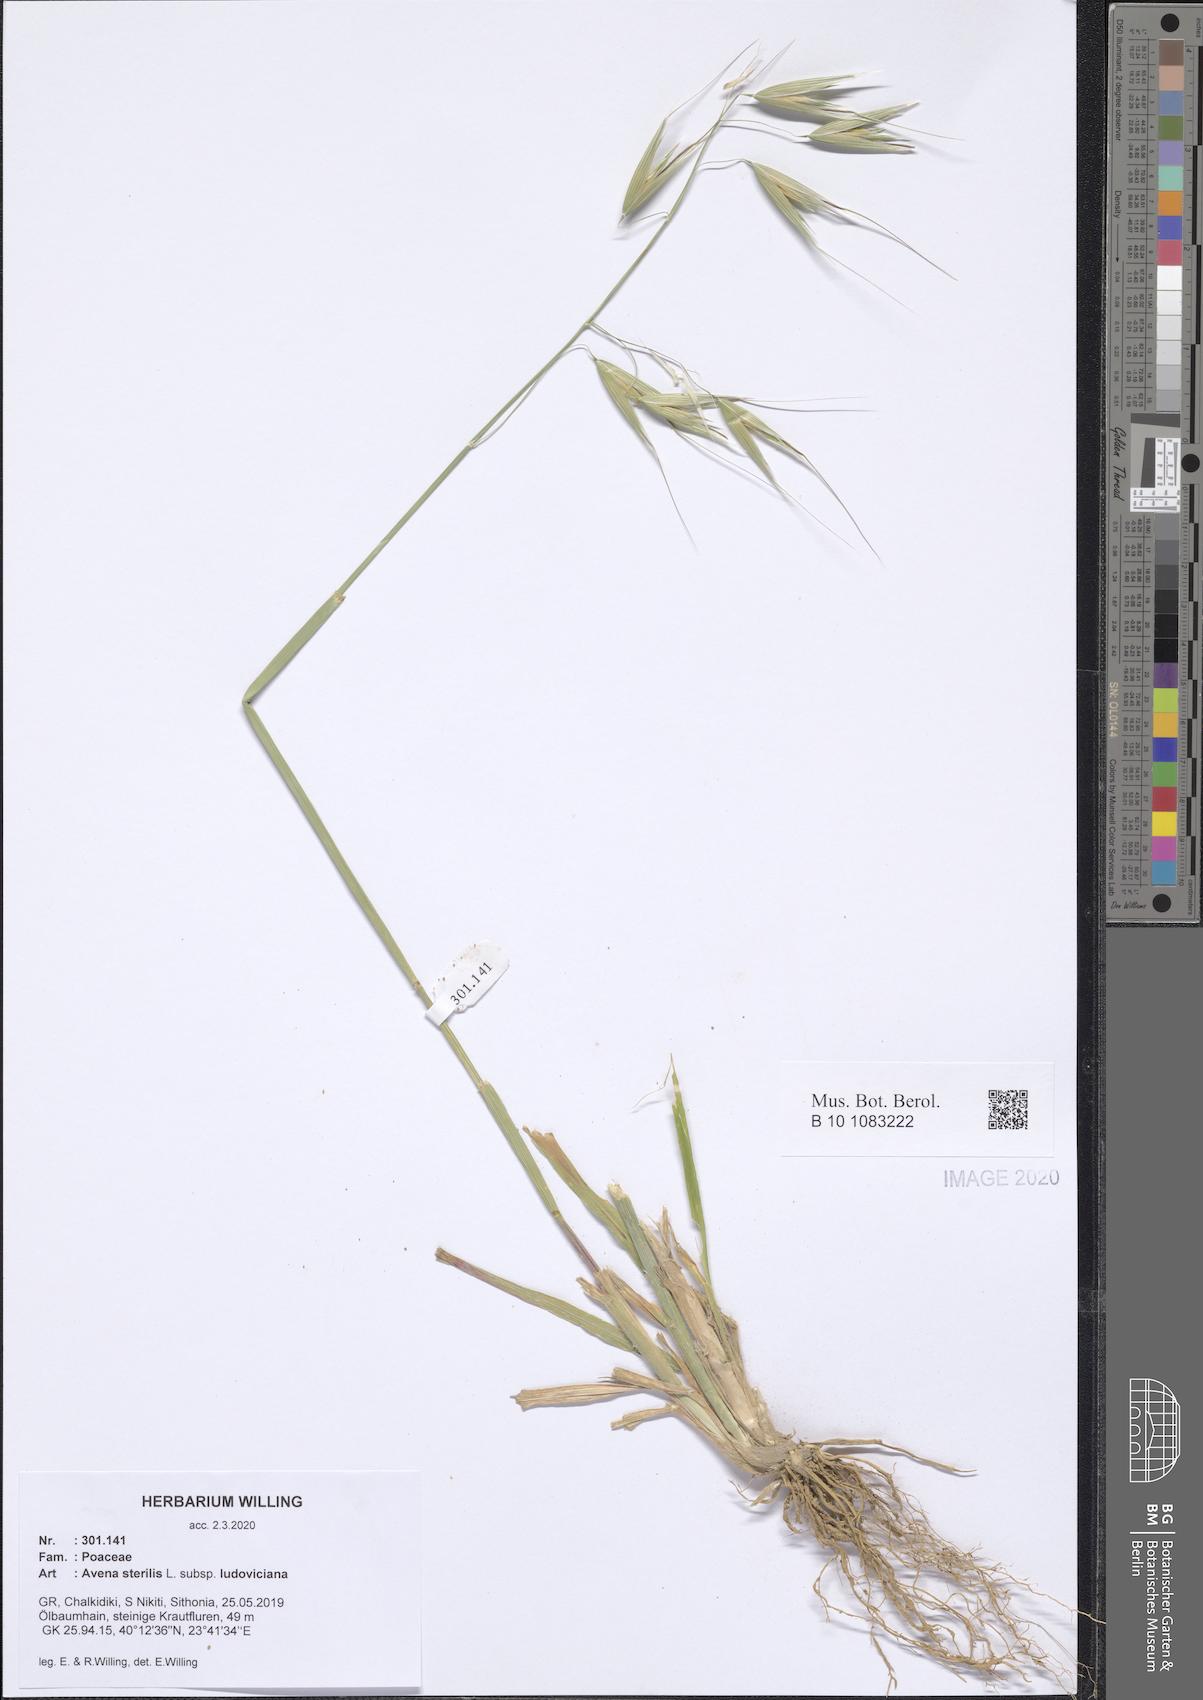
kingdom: Plantae
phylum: Tracheophyta
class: Liliopsida
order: Poales
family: Poaceae
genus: Avena
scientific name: Avena sterilis
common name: Animated oat
